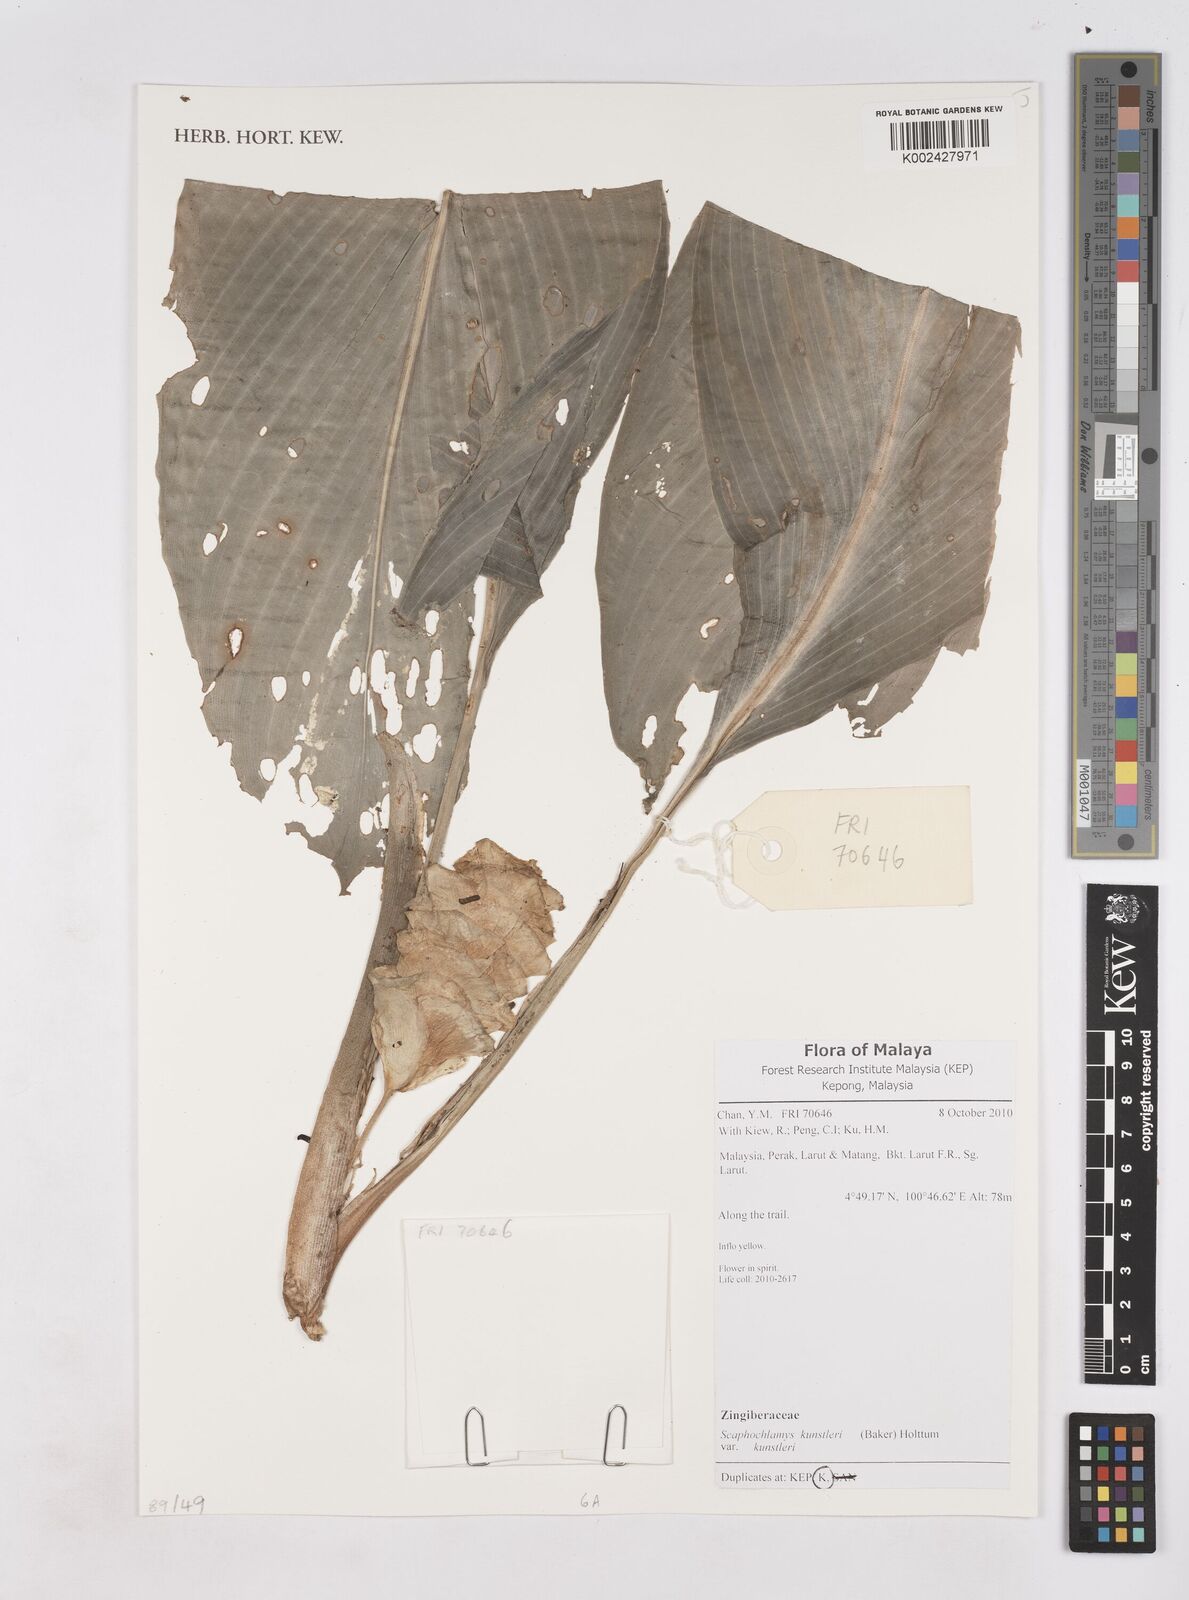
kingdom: Plantae
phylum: Tracheophyta
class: Liliopsida
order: Zingiberales
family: Zingiberaceae
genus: Scaphochlamys
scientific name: Scaphochlamys kunstleri
